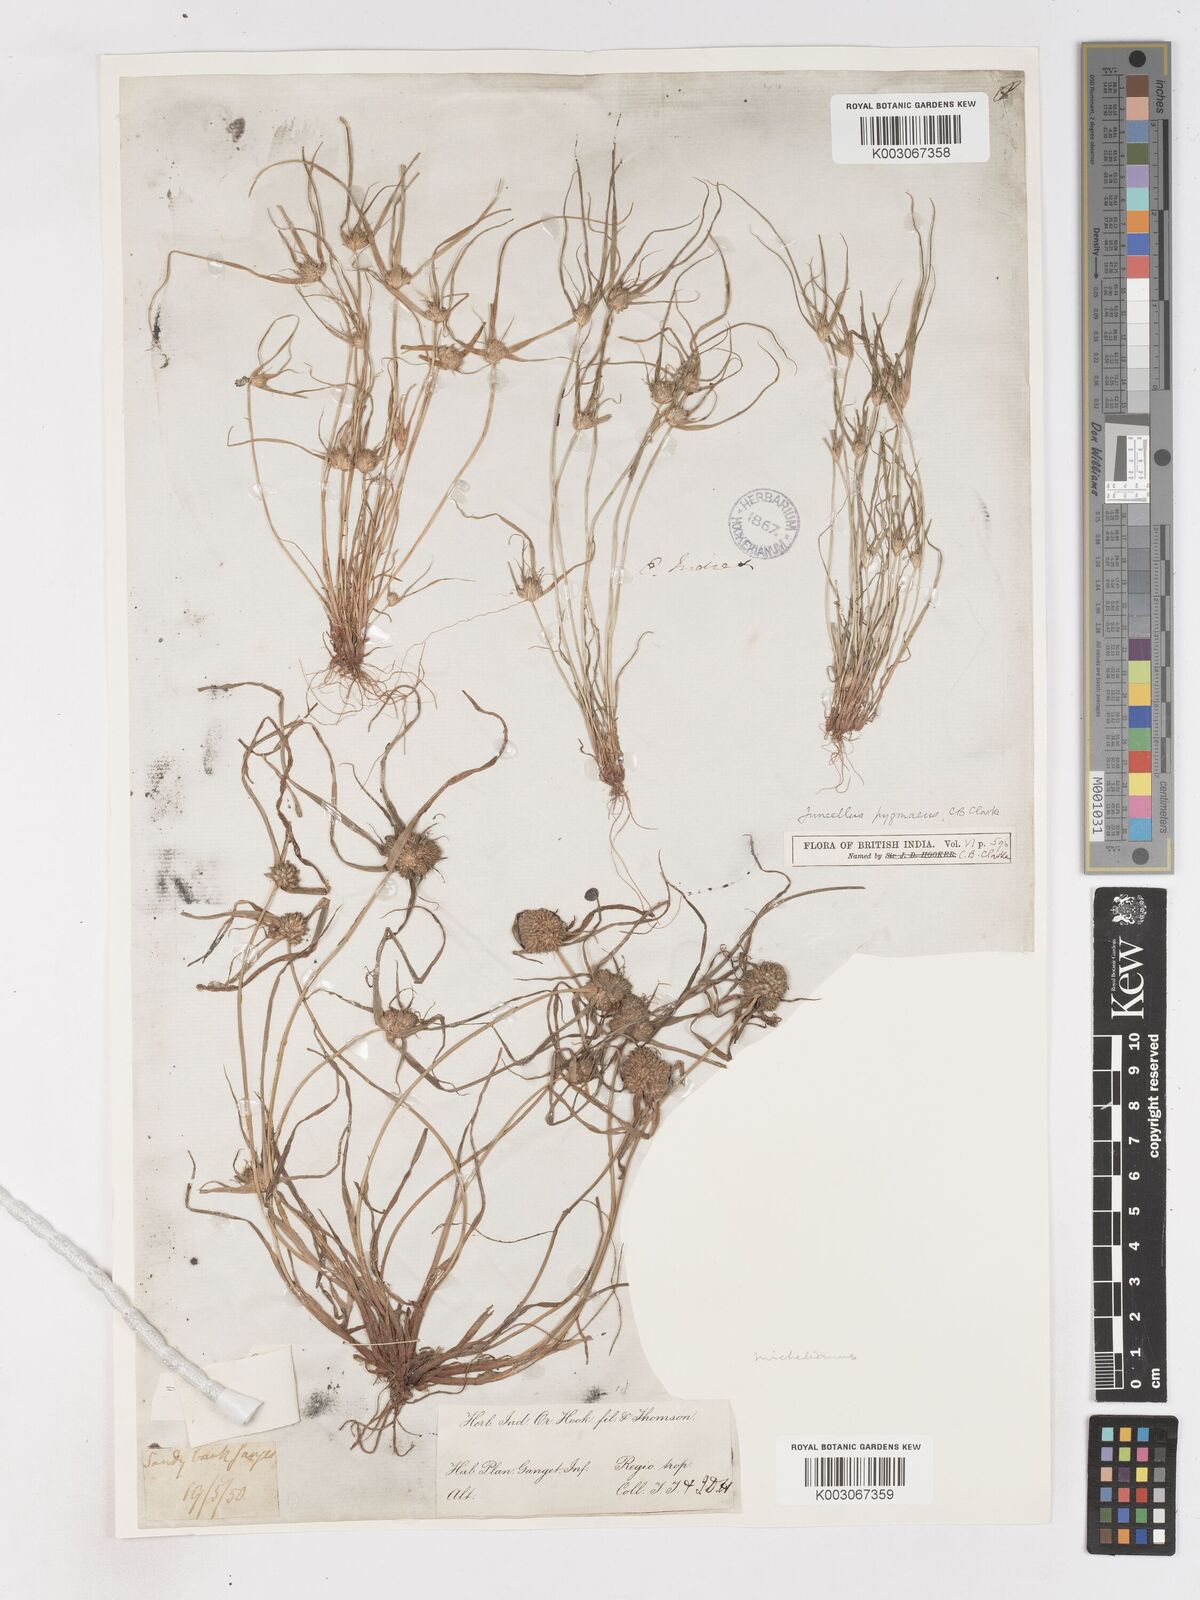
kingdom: Plantae
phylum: Tracheophyta
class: Liliopsida
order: Poales
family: Cyperaceae
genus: Cyperus
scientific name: Cyperus michelianus
